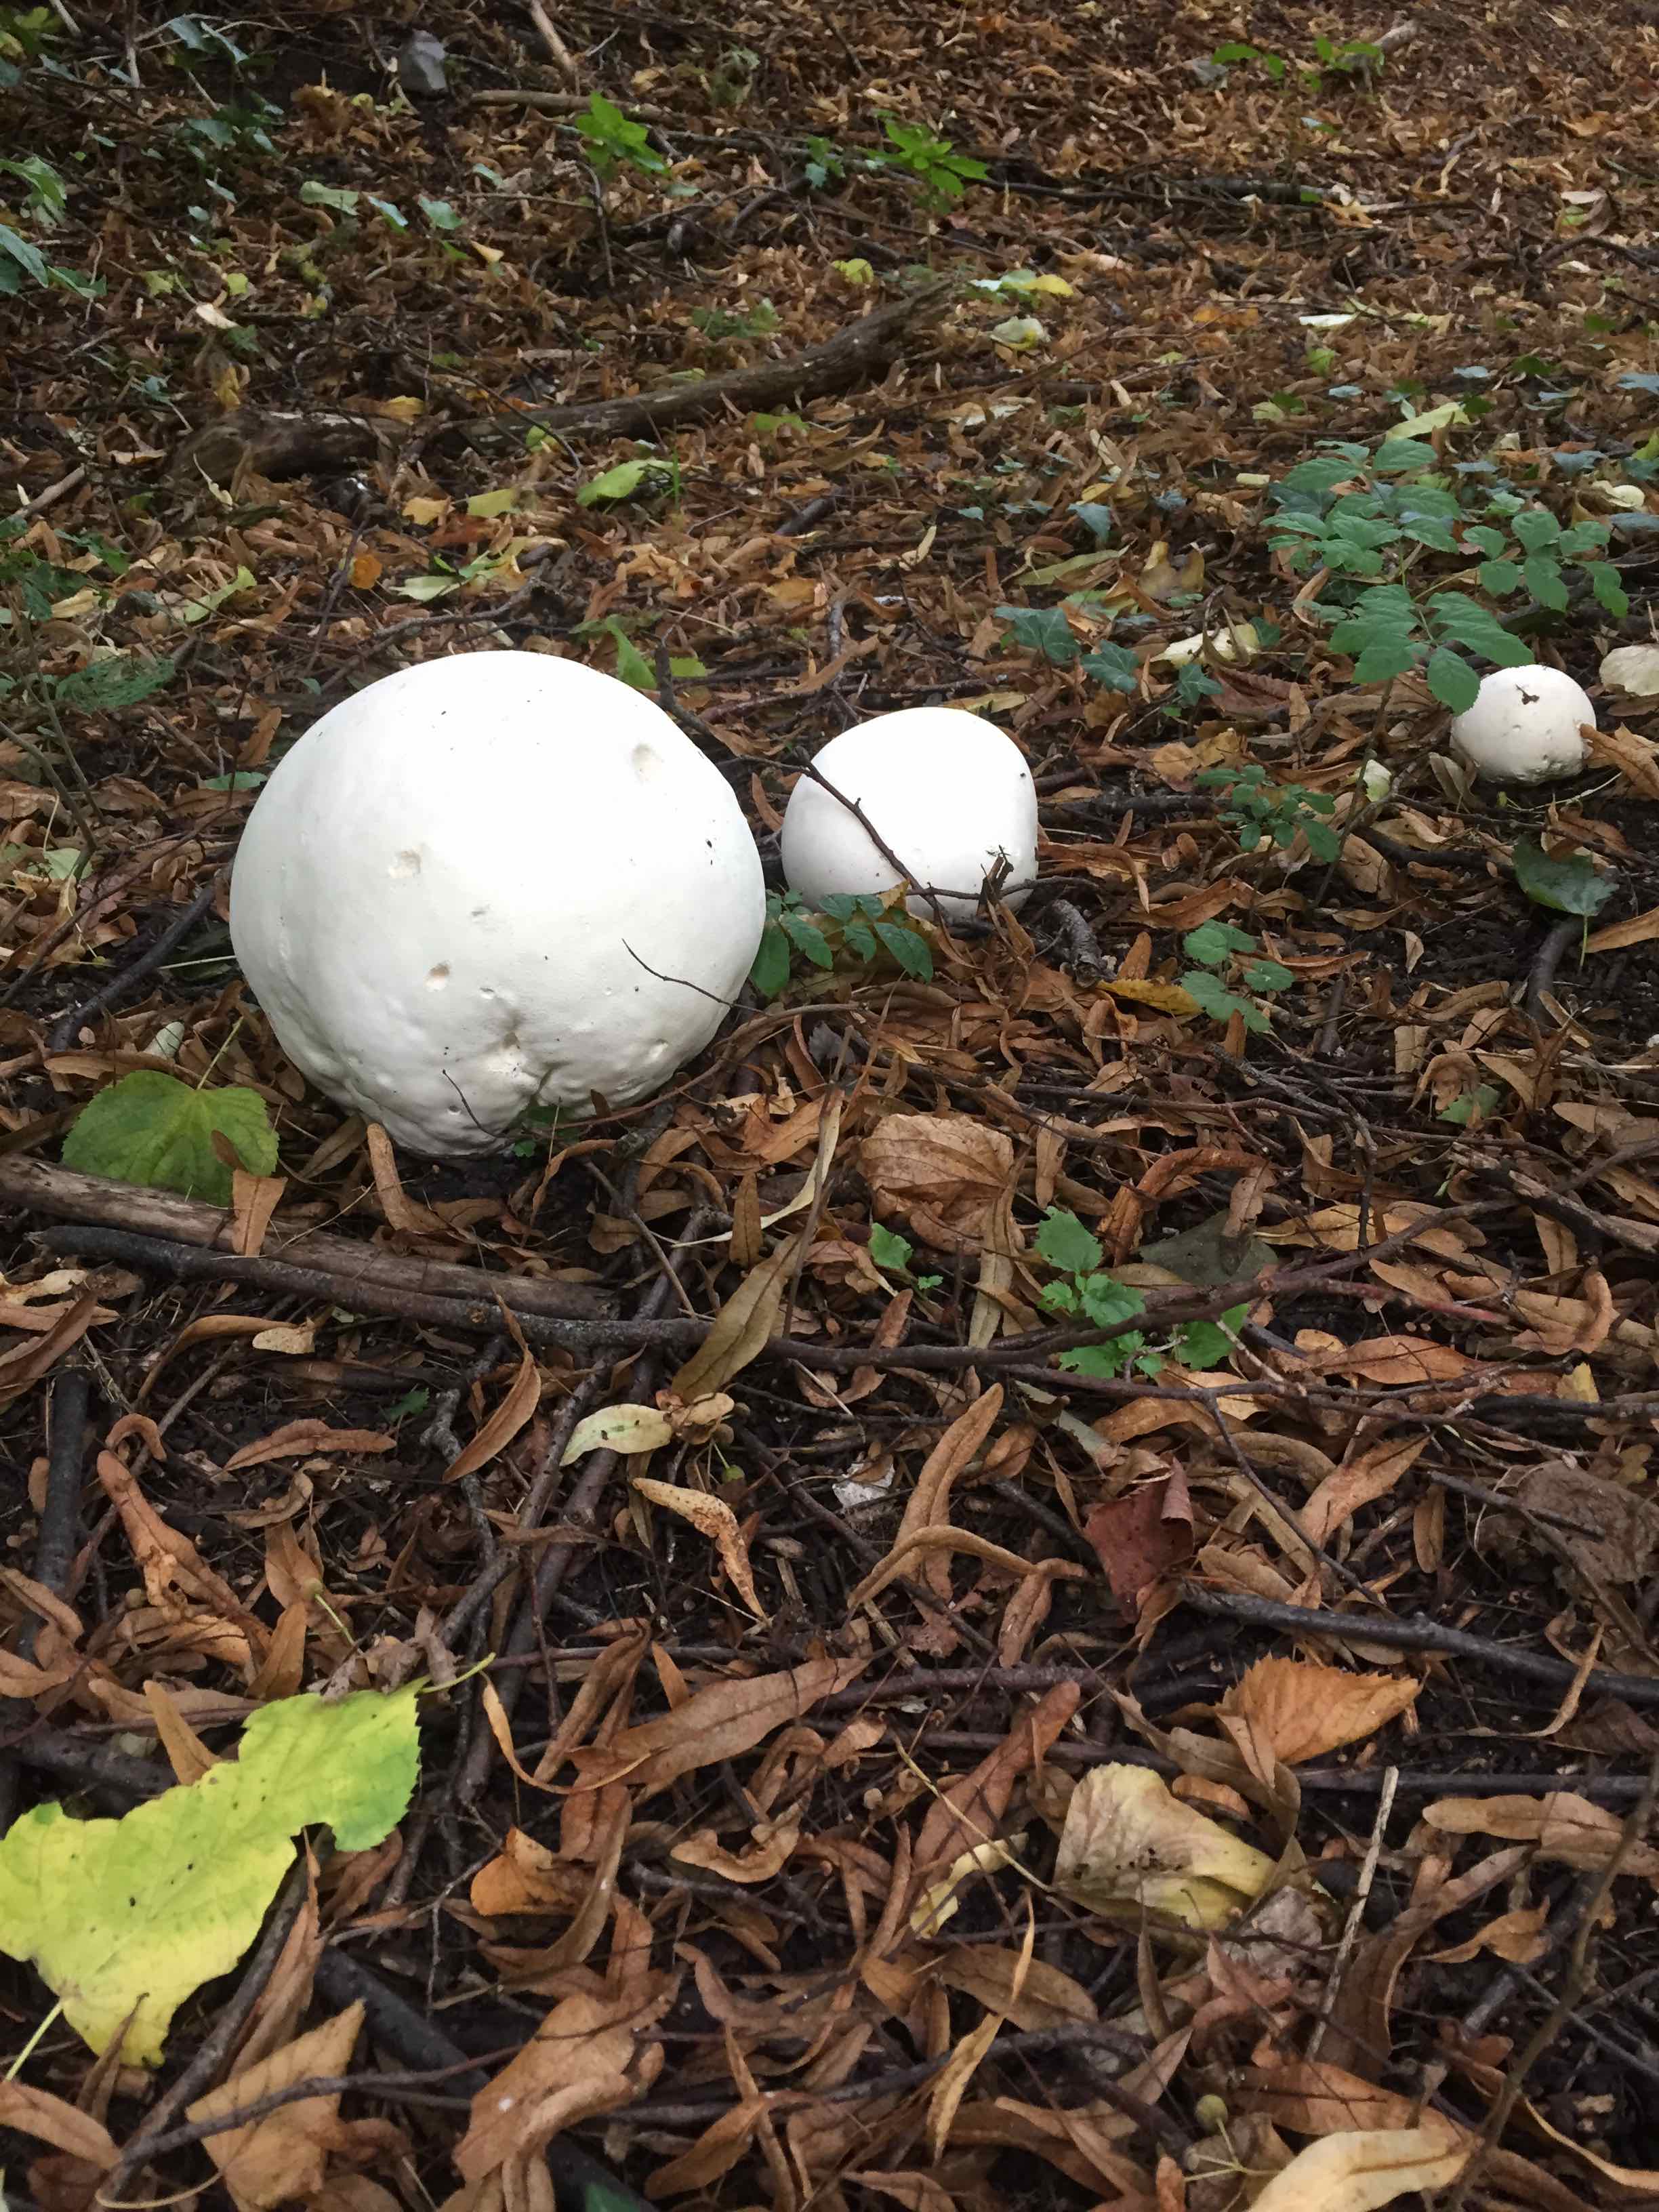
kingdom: Fungi
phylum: Basidiomycota
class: Agaricomycetes
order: Agaricales
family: Lycoperdaceae
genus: Calvatia
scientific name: Calvatia gigantea
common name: kæmpestøvbold
